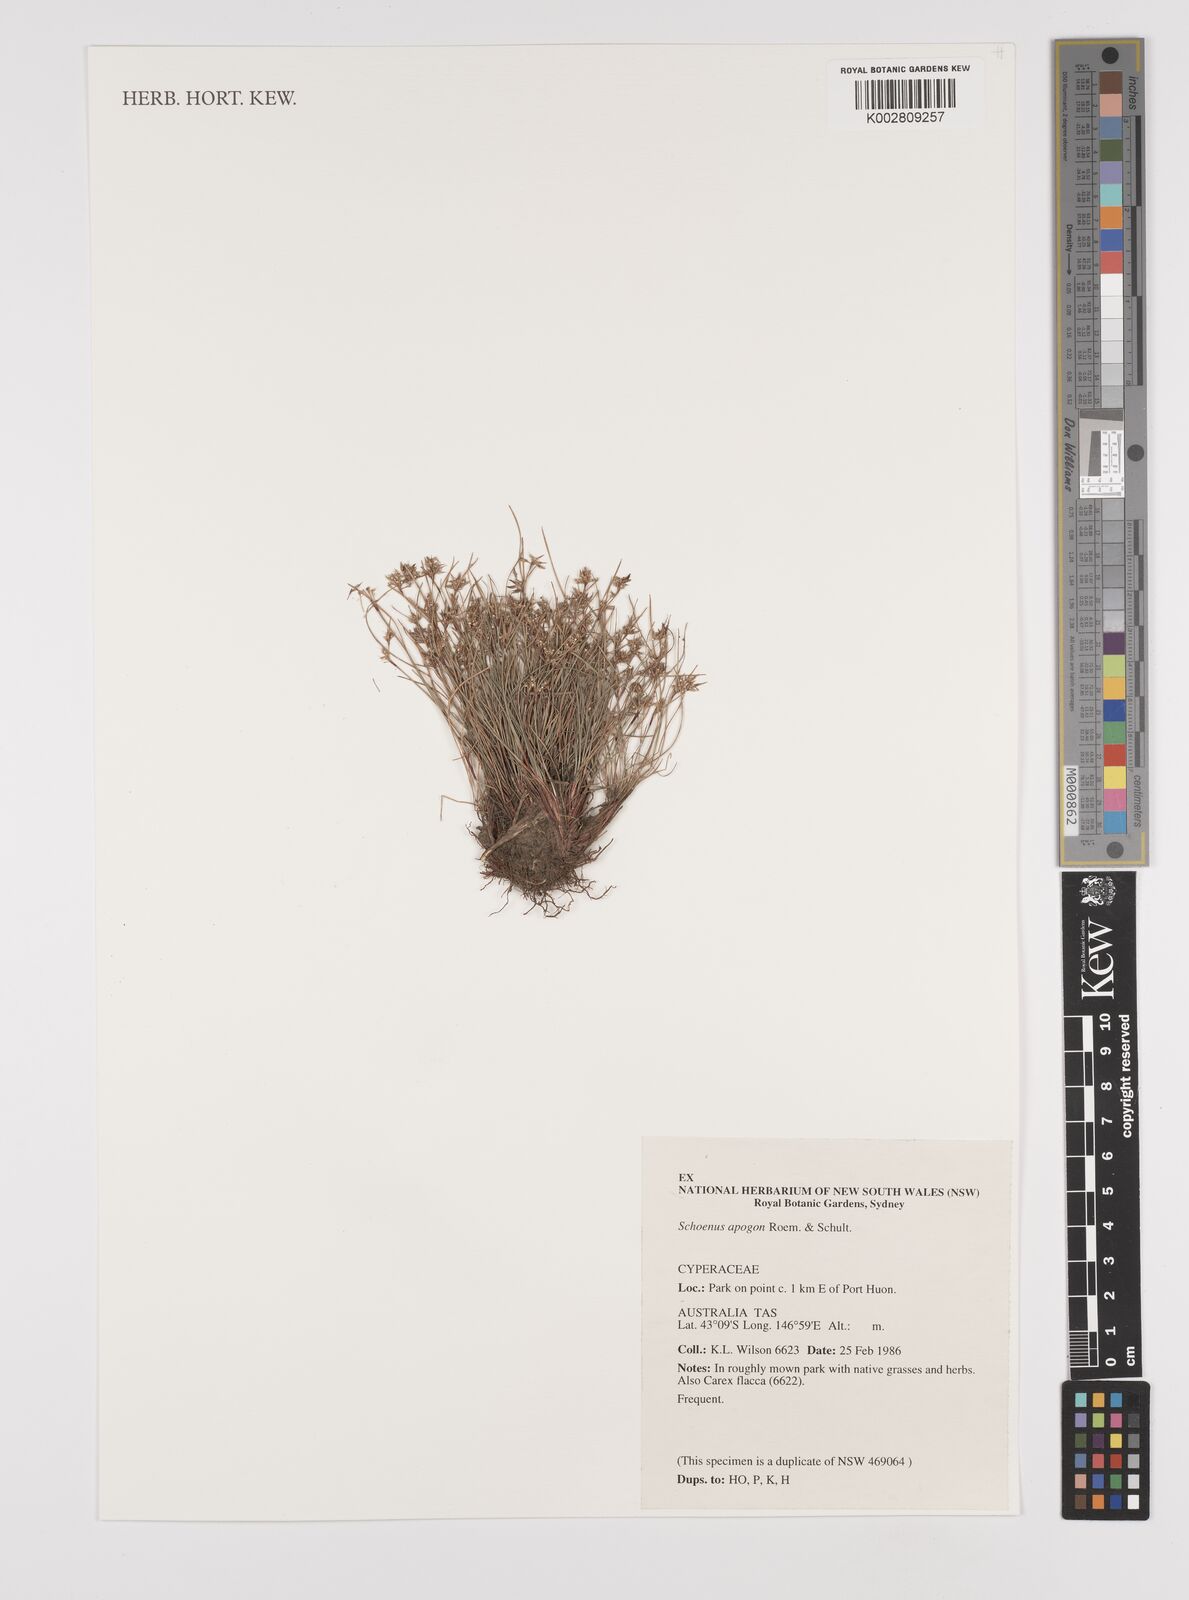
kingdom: Plantae
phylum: Tracheophyta
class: Liliopsida
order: Poales
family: Cyperaceae
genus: Schoenus
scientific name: Schoenus apogon
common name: Smooth bogrush
